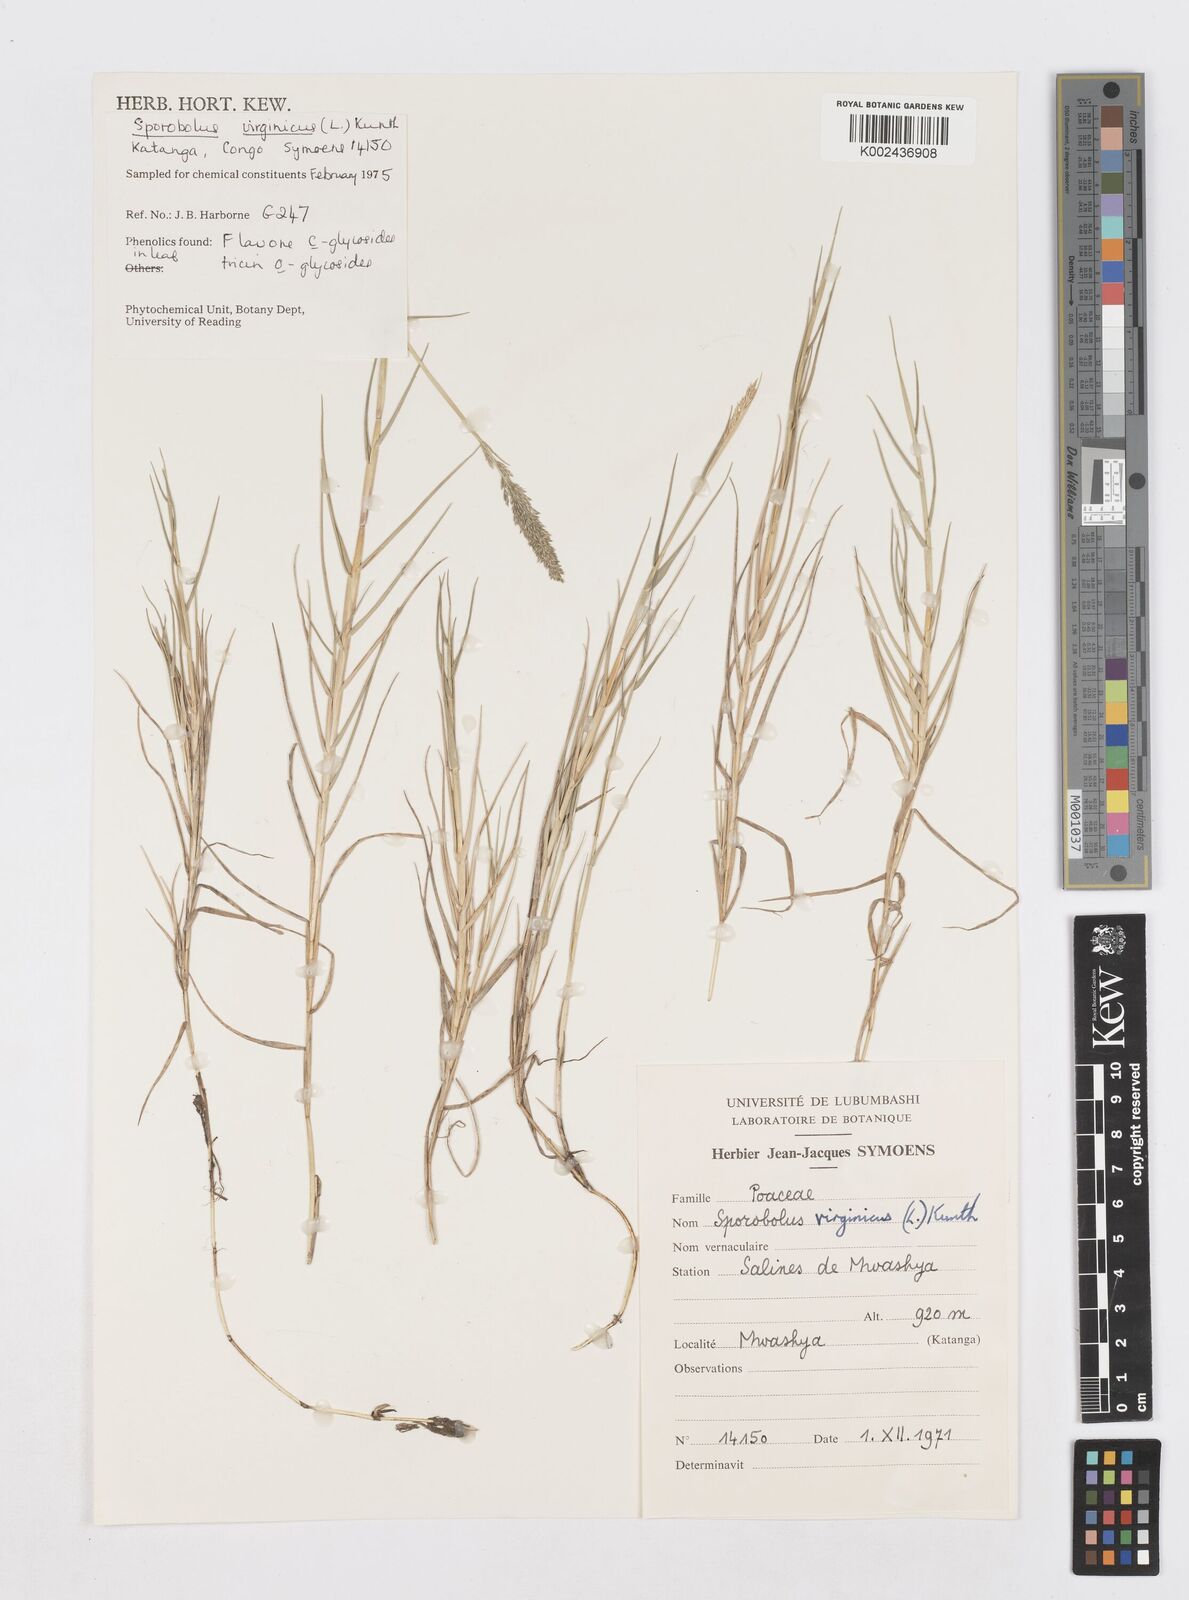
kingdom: Plantae
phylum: Tracheophyta
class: Liliopsida
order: Poales
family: Poaceae
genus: Sporobolus
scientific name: Sporobolus virginicus
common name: Beach dropseed
